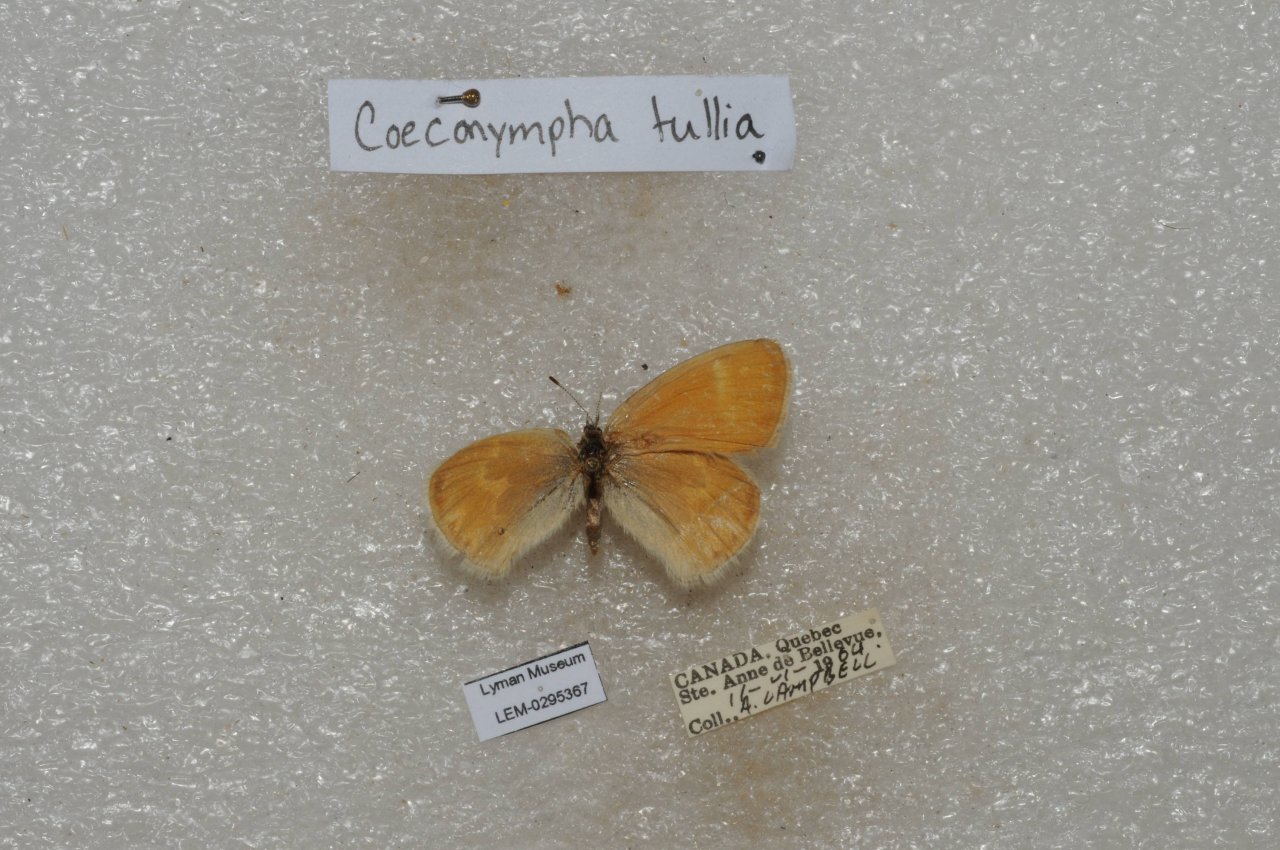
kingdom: Animalia
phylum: Arthropoda
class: Insecta
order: Lepidoptera
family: Nymphalidae
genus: Coenonympha
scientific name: Coenonympha tullia
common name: Large Heath
